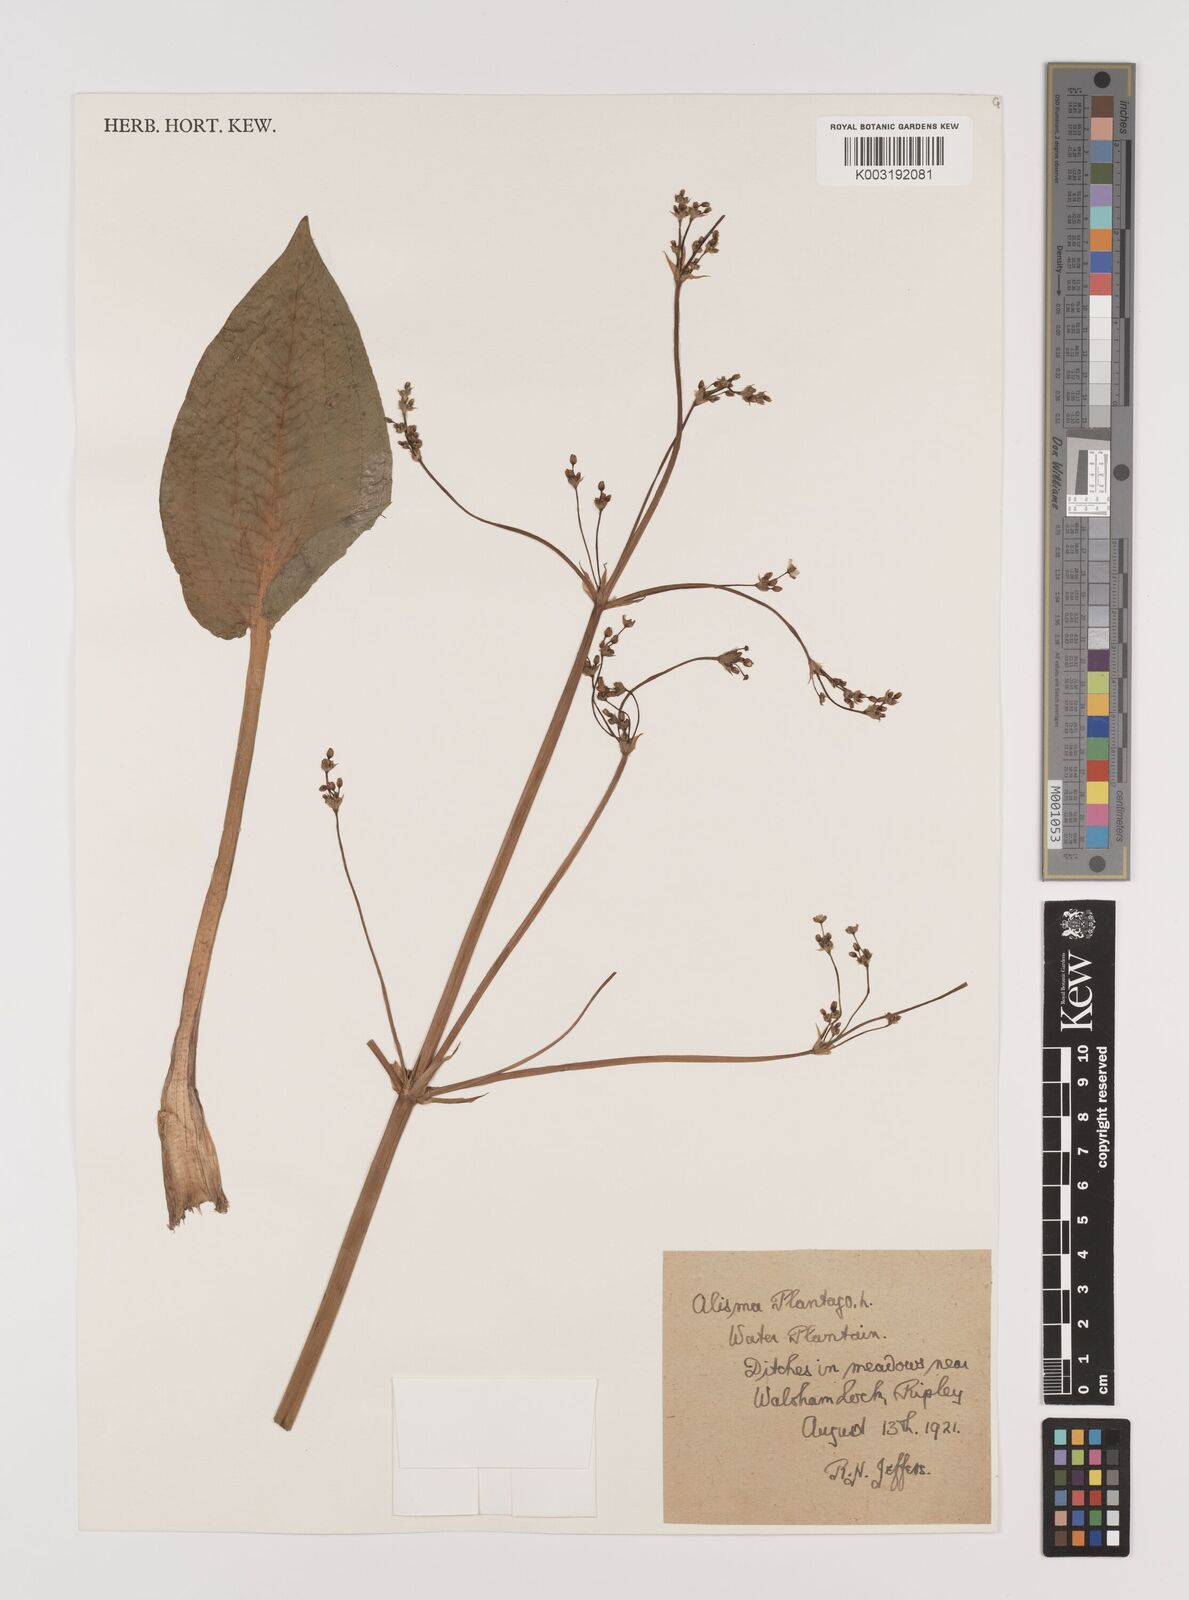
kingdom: Plantae
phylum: Tracheophyta
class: Liliopsida
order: Alismatales
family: Alismataceae
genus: Alisma
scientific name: Alisma plantago-aquatica
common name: Water-plantain
